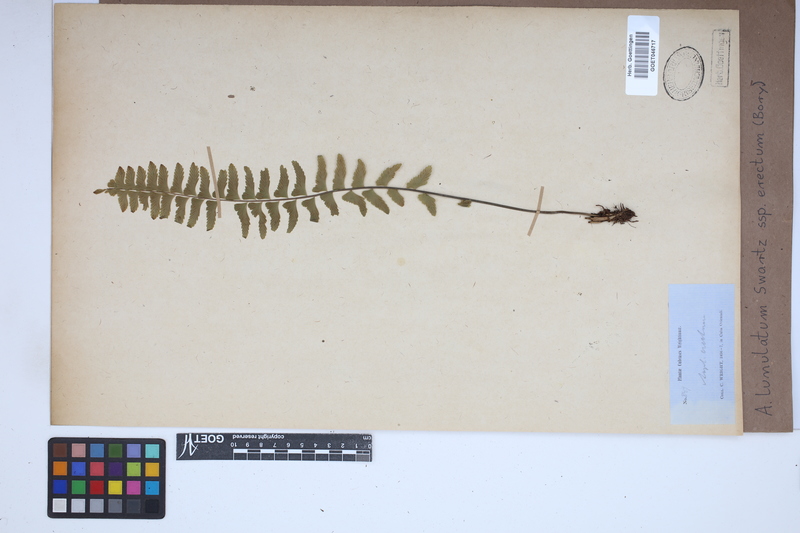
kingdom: Plantae
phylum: Tracheophyta
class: Polypodiopsida
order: Polypodiales
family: Aspleniaceae
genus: Asplenium
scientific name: Asplenium erectum
